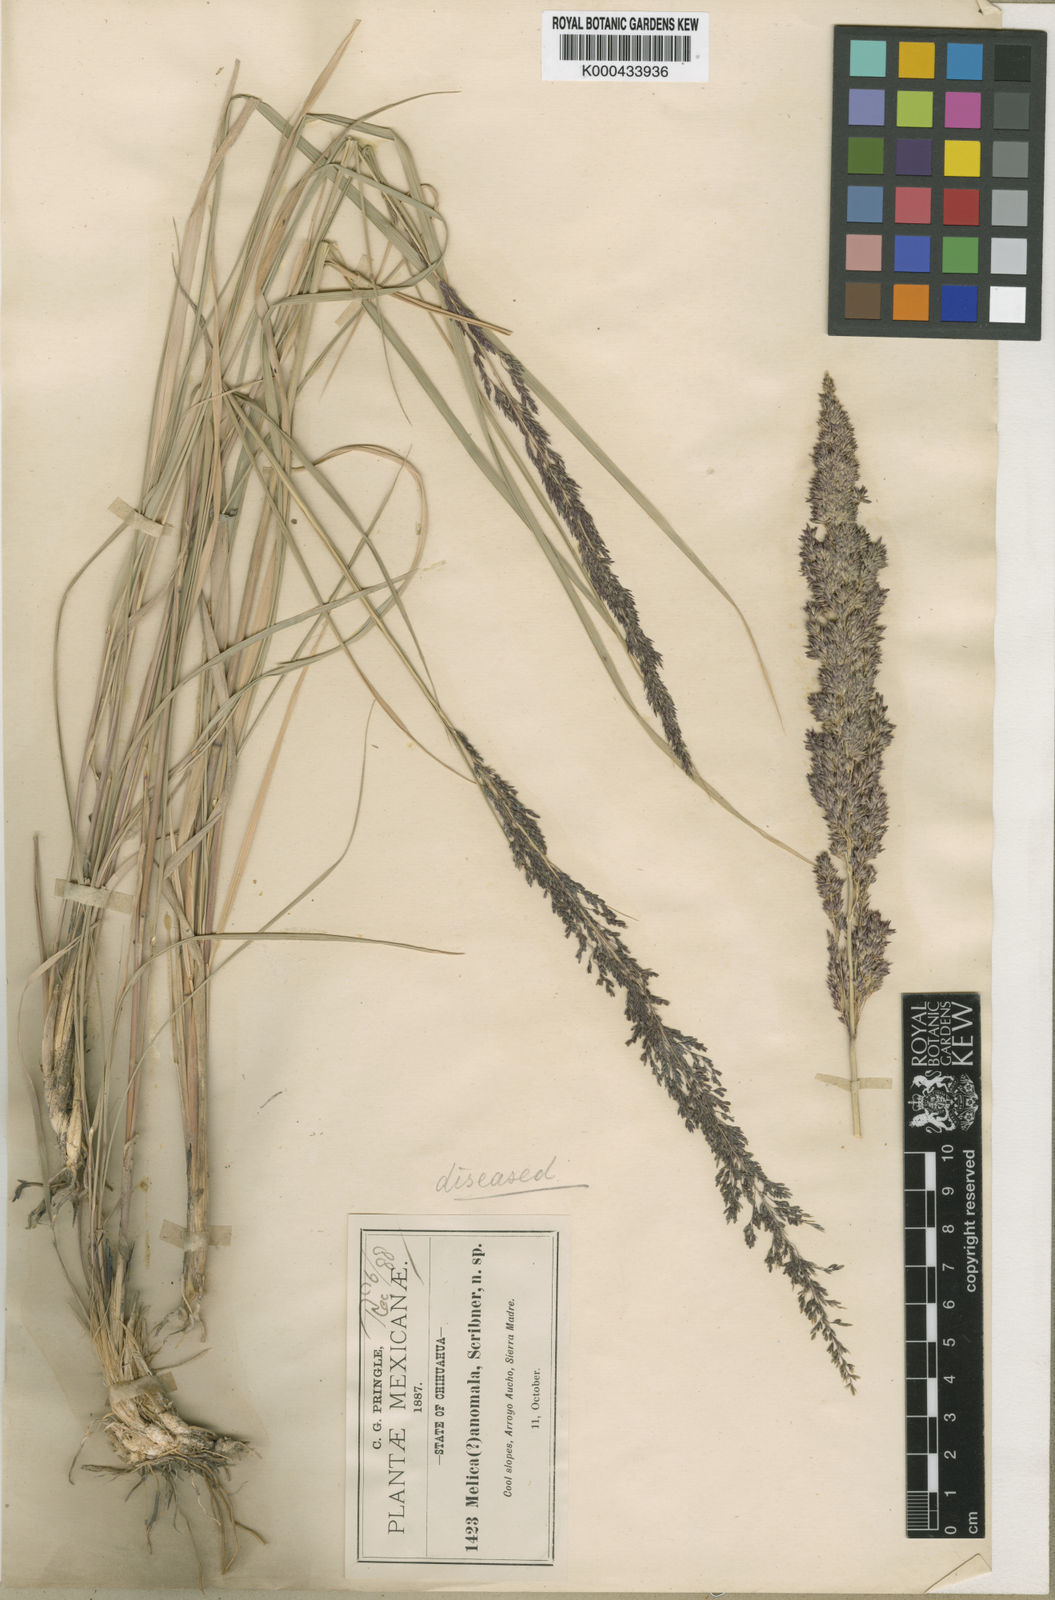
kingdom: Plantae
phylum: Tracheophyta
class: Liliopsida
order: Poales
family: Poaceae
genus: Muhlenbergia
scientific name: Muhlenbergia longiligula
